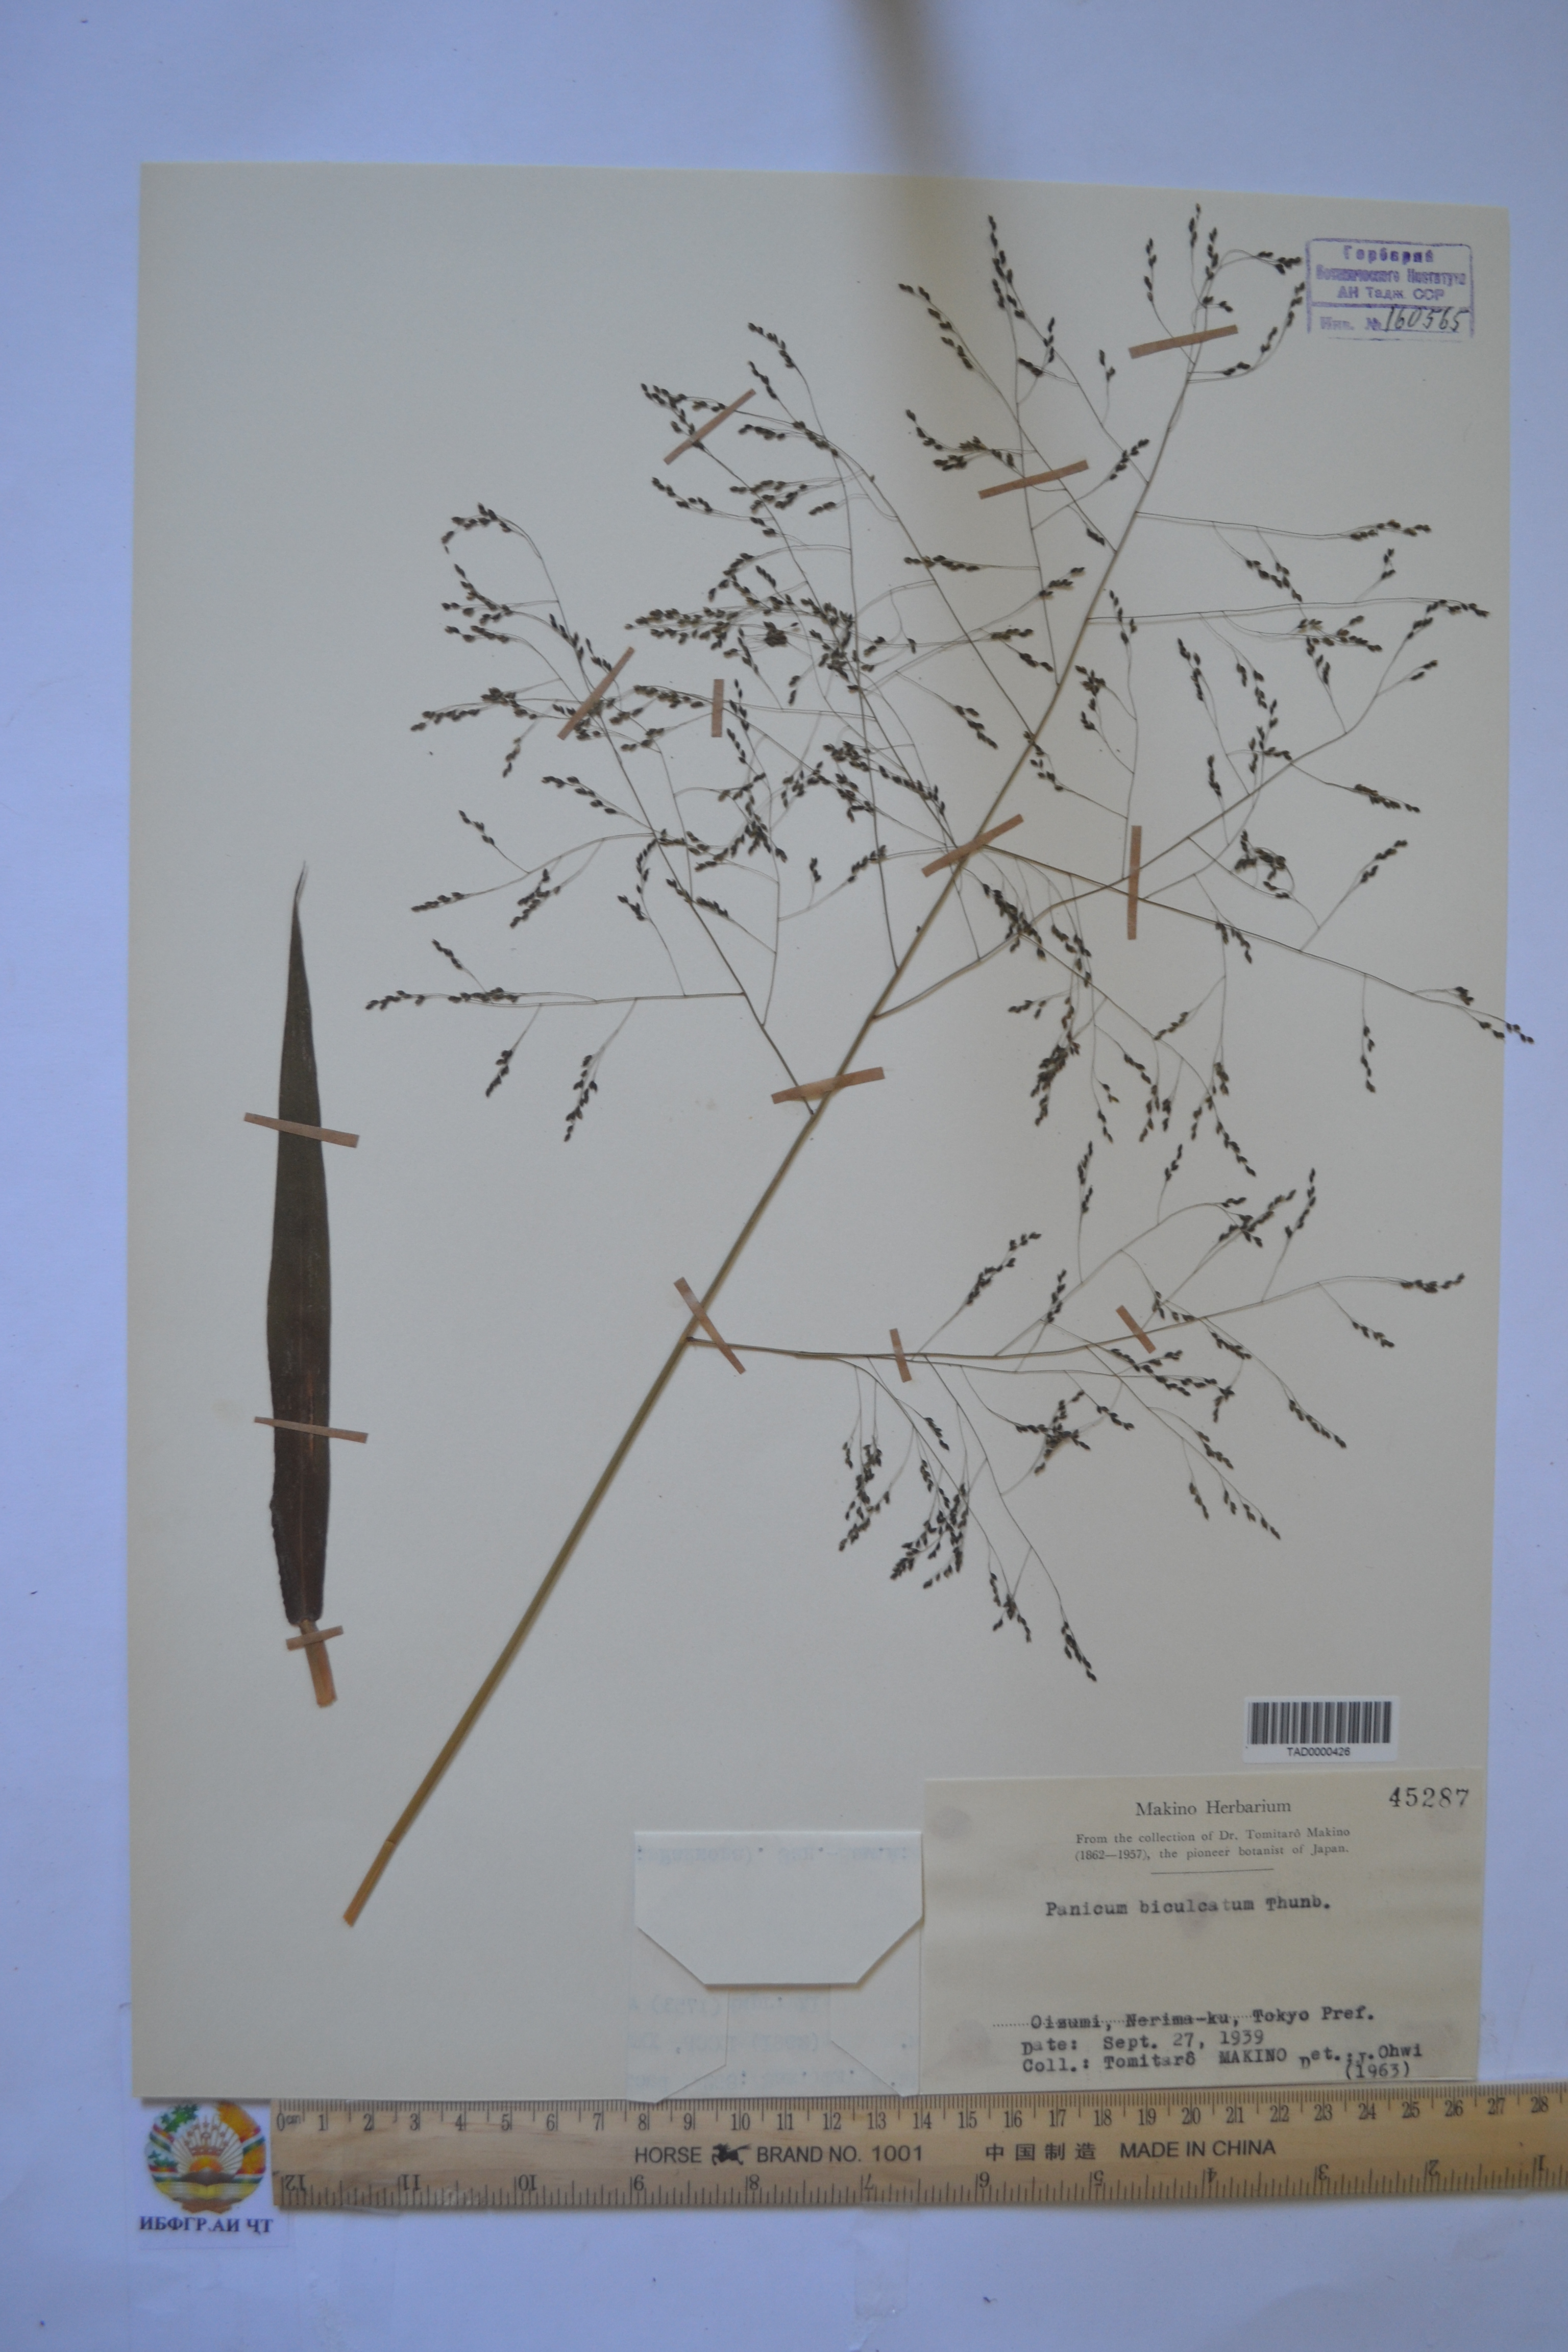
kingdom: Plantae
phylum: Tracheophyta
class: Liliopsida
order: Poales
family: Poaceae
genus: Panicum
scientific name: Panicum bisulcatum
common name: Japanese panicgrass
